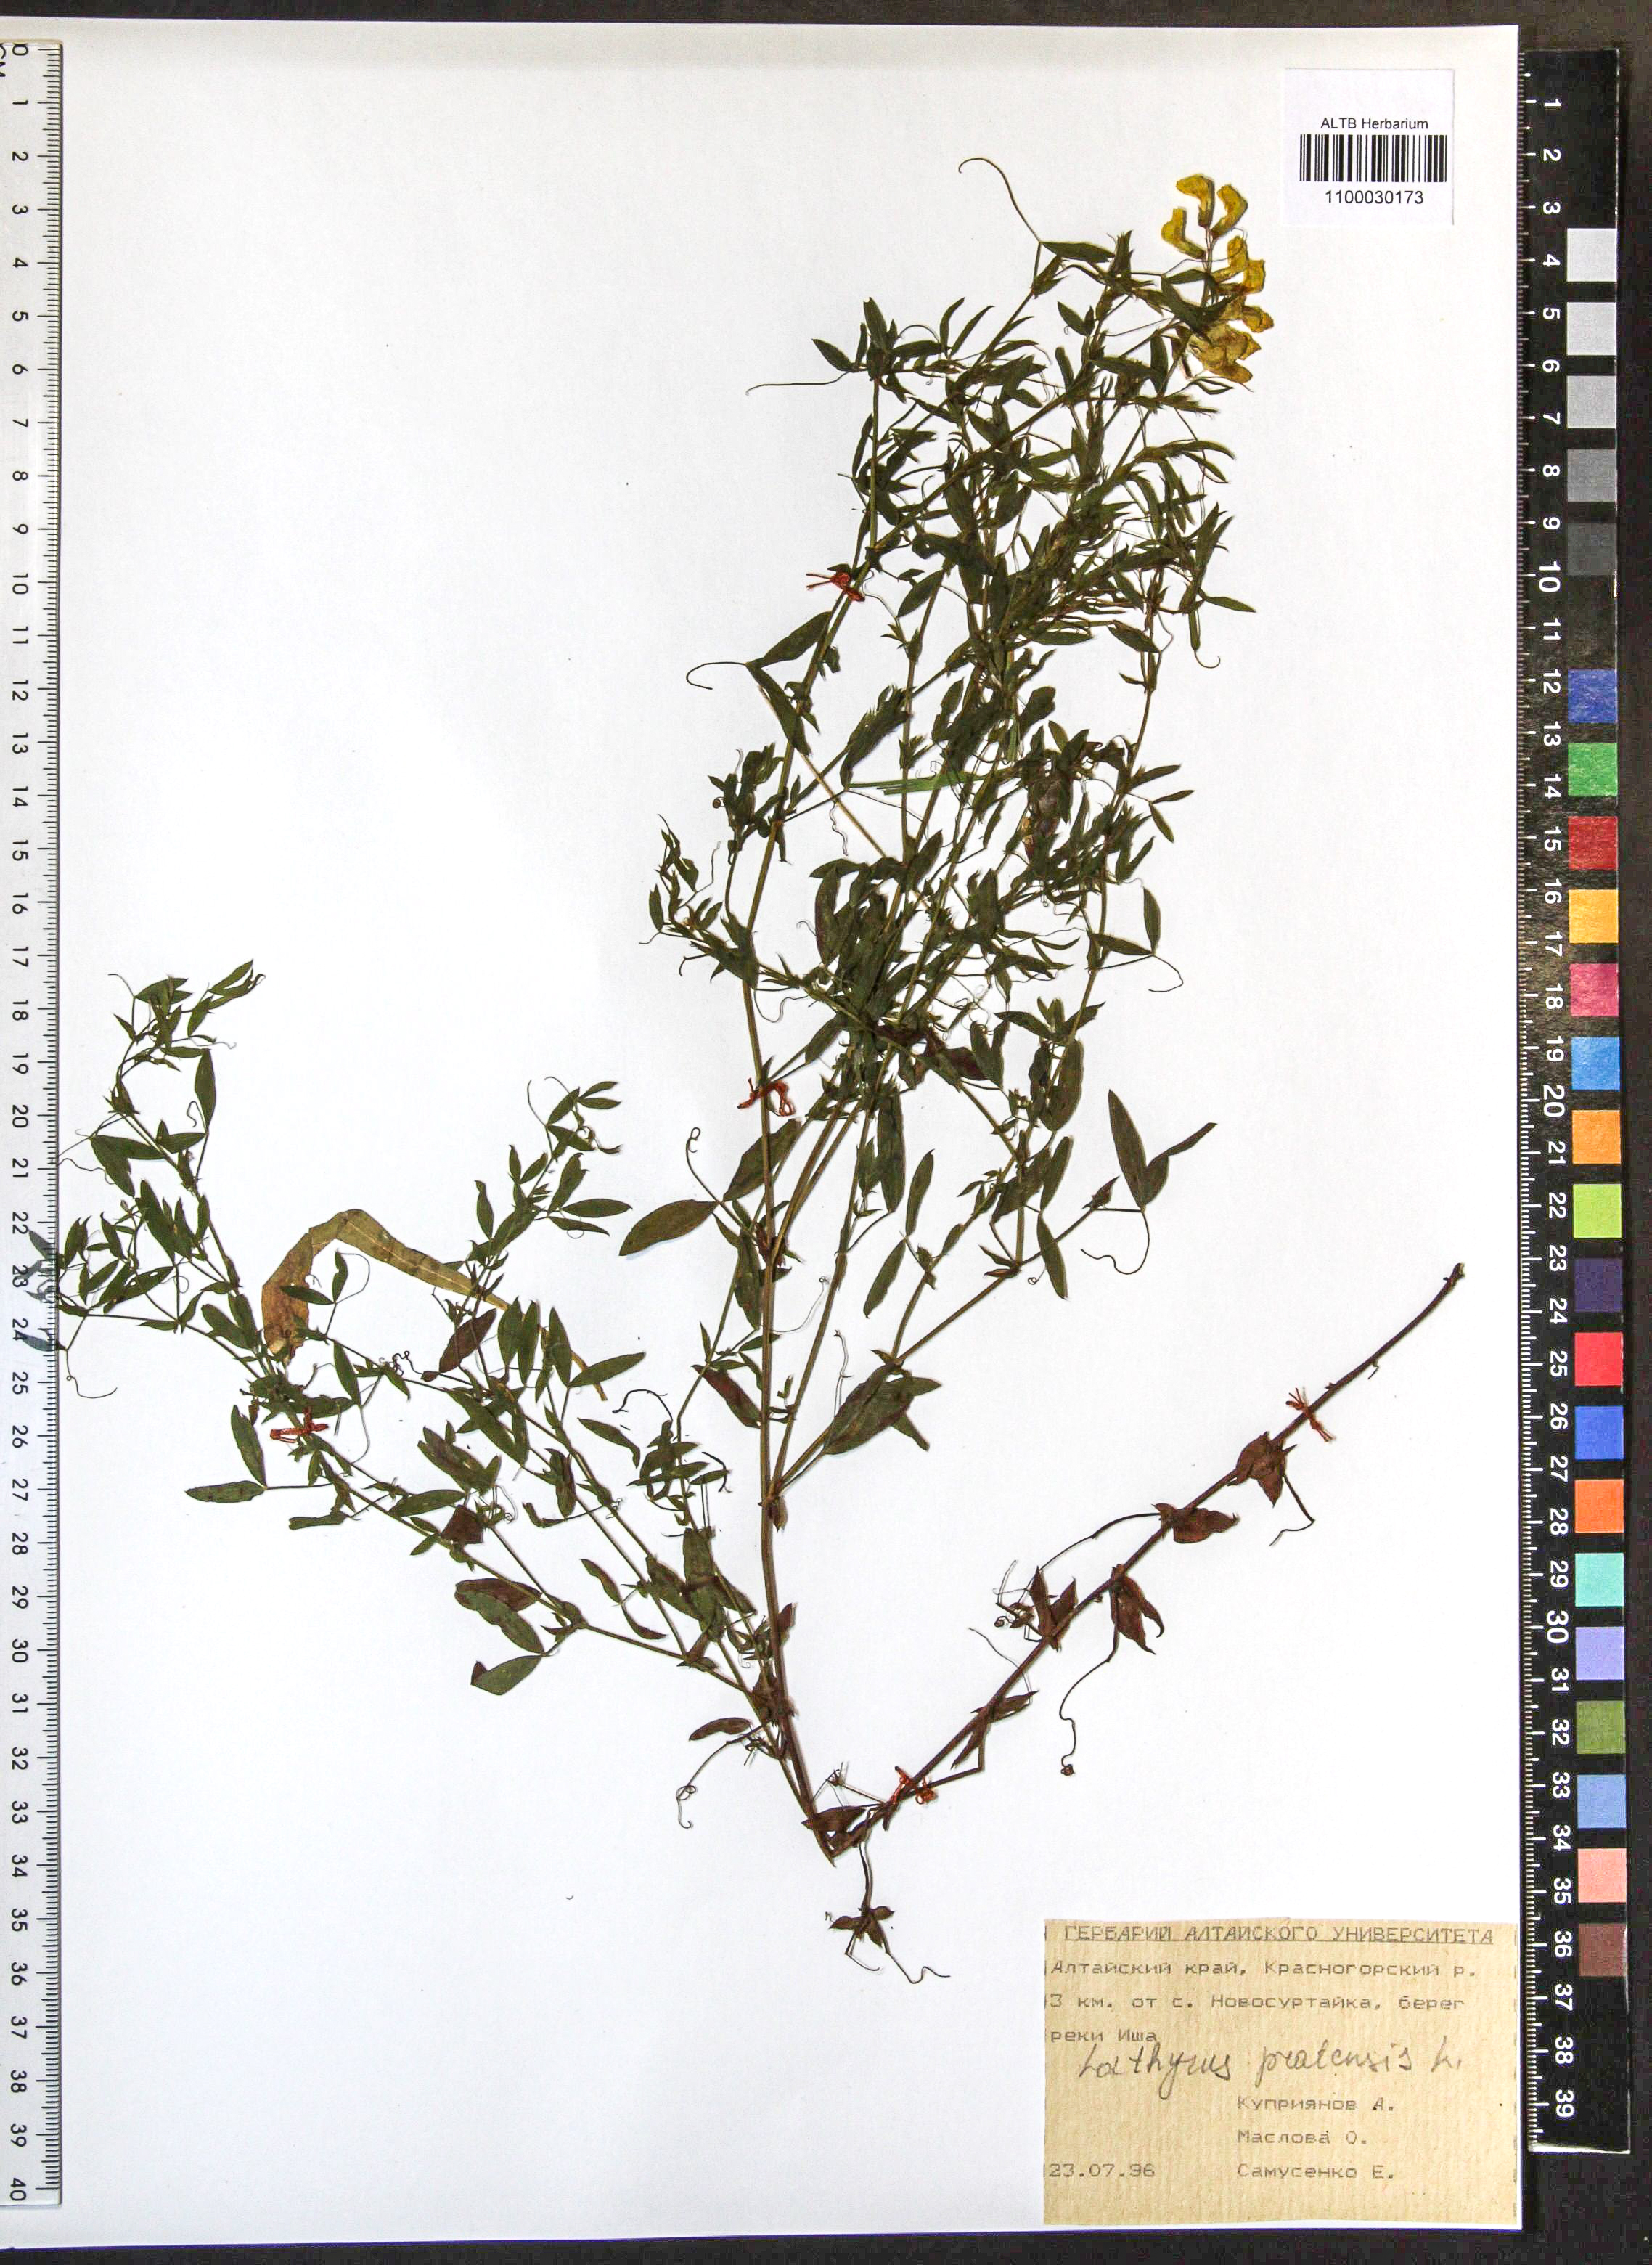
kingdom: Plantae
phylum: Tracheophyta
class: Magnoliopsida
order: Fabales
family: Fabaceae
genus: Lathyrus
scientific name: Lathyrus pratensis
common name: Meadow vetchling
